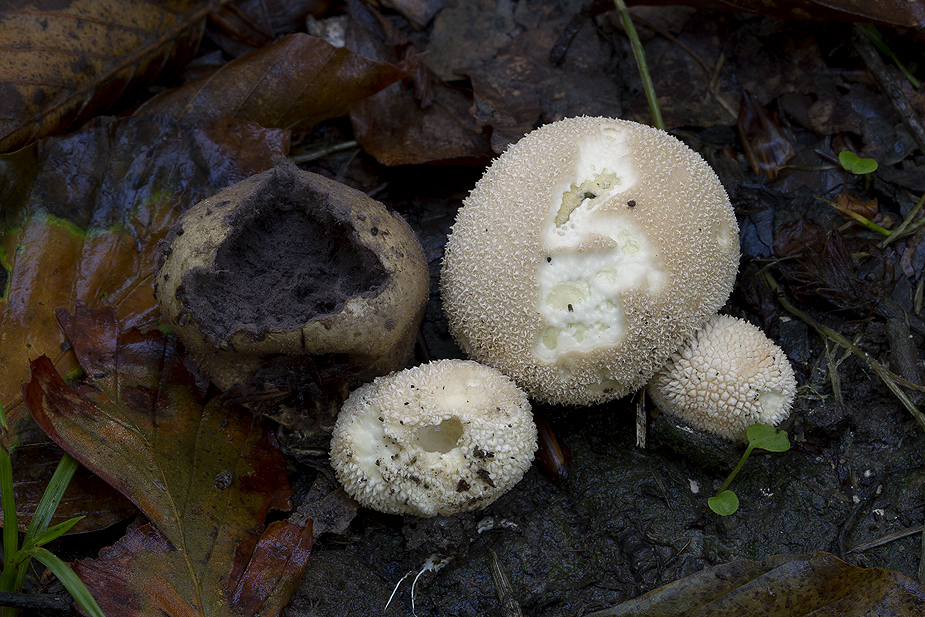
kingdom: Fungi
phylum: Basidiomycota
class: Agaricomycetes
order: Agaricales
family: Lycoperdaceae
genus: Lycoperdon
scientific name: Lycoperdon decipiens
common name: rod-støvbold
